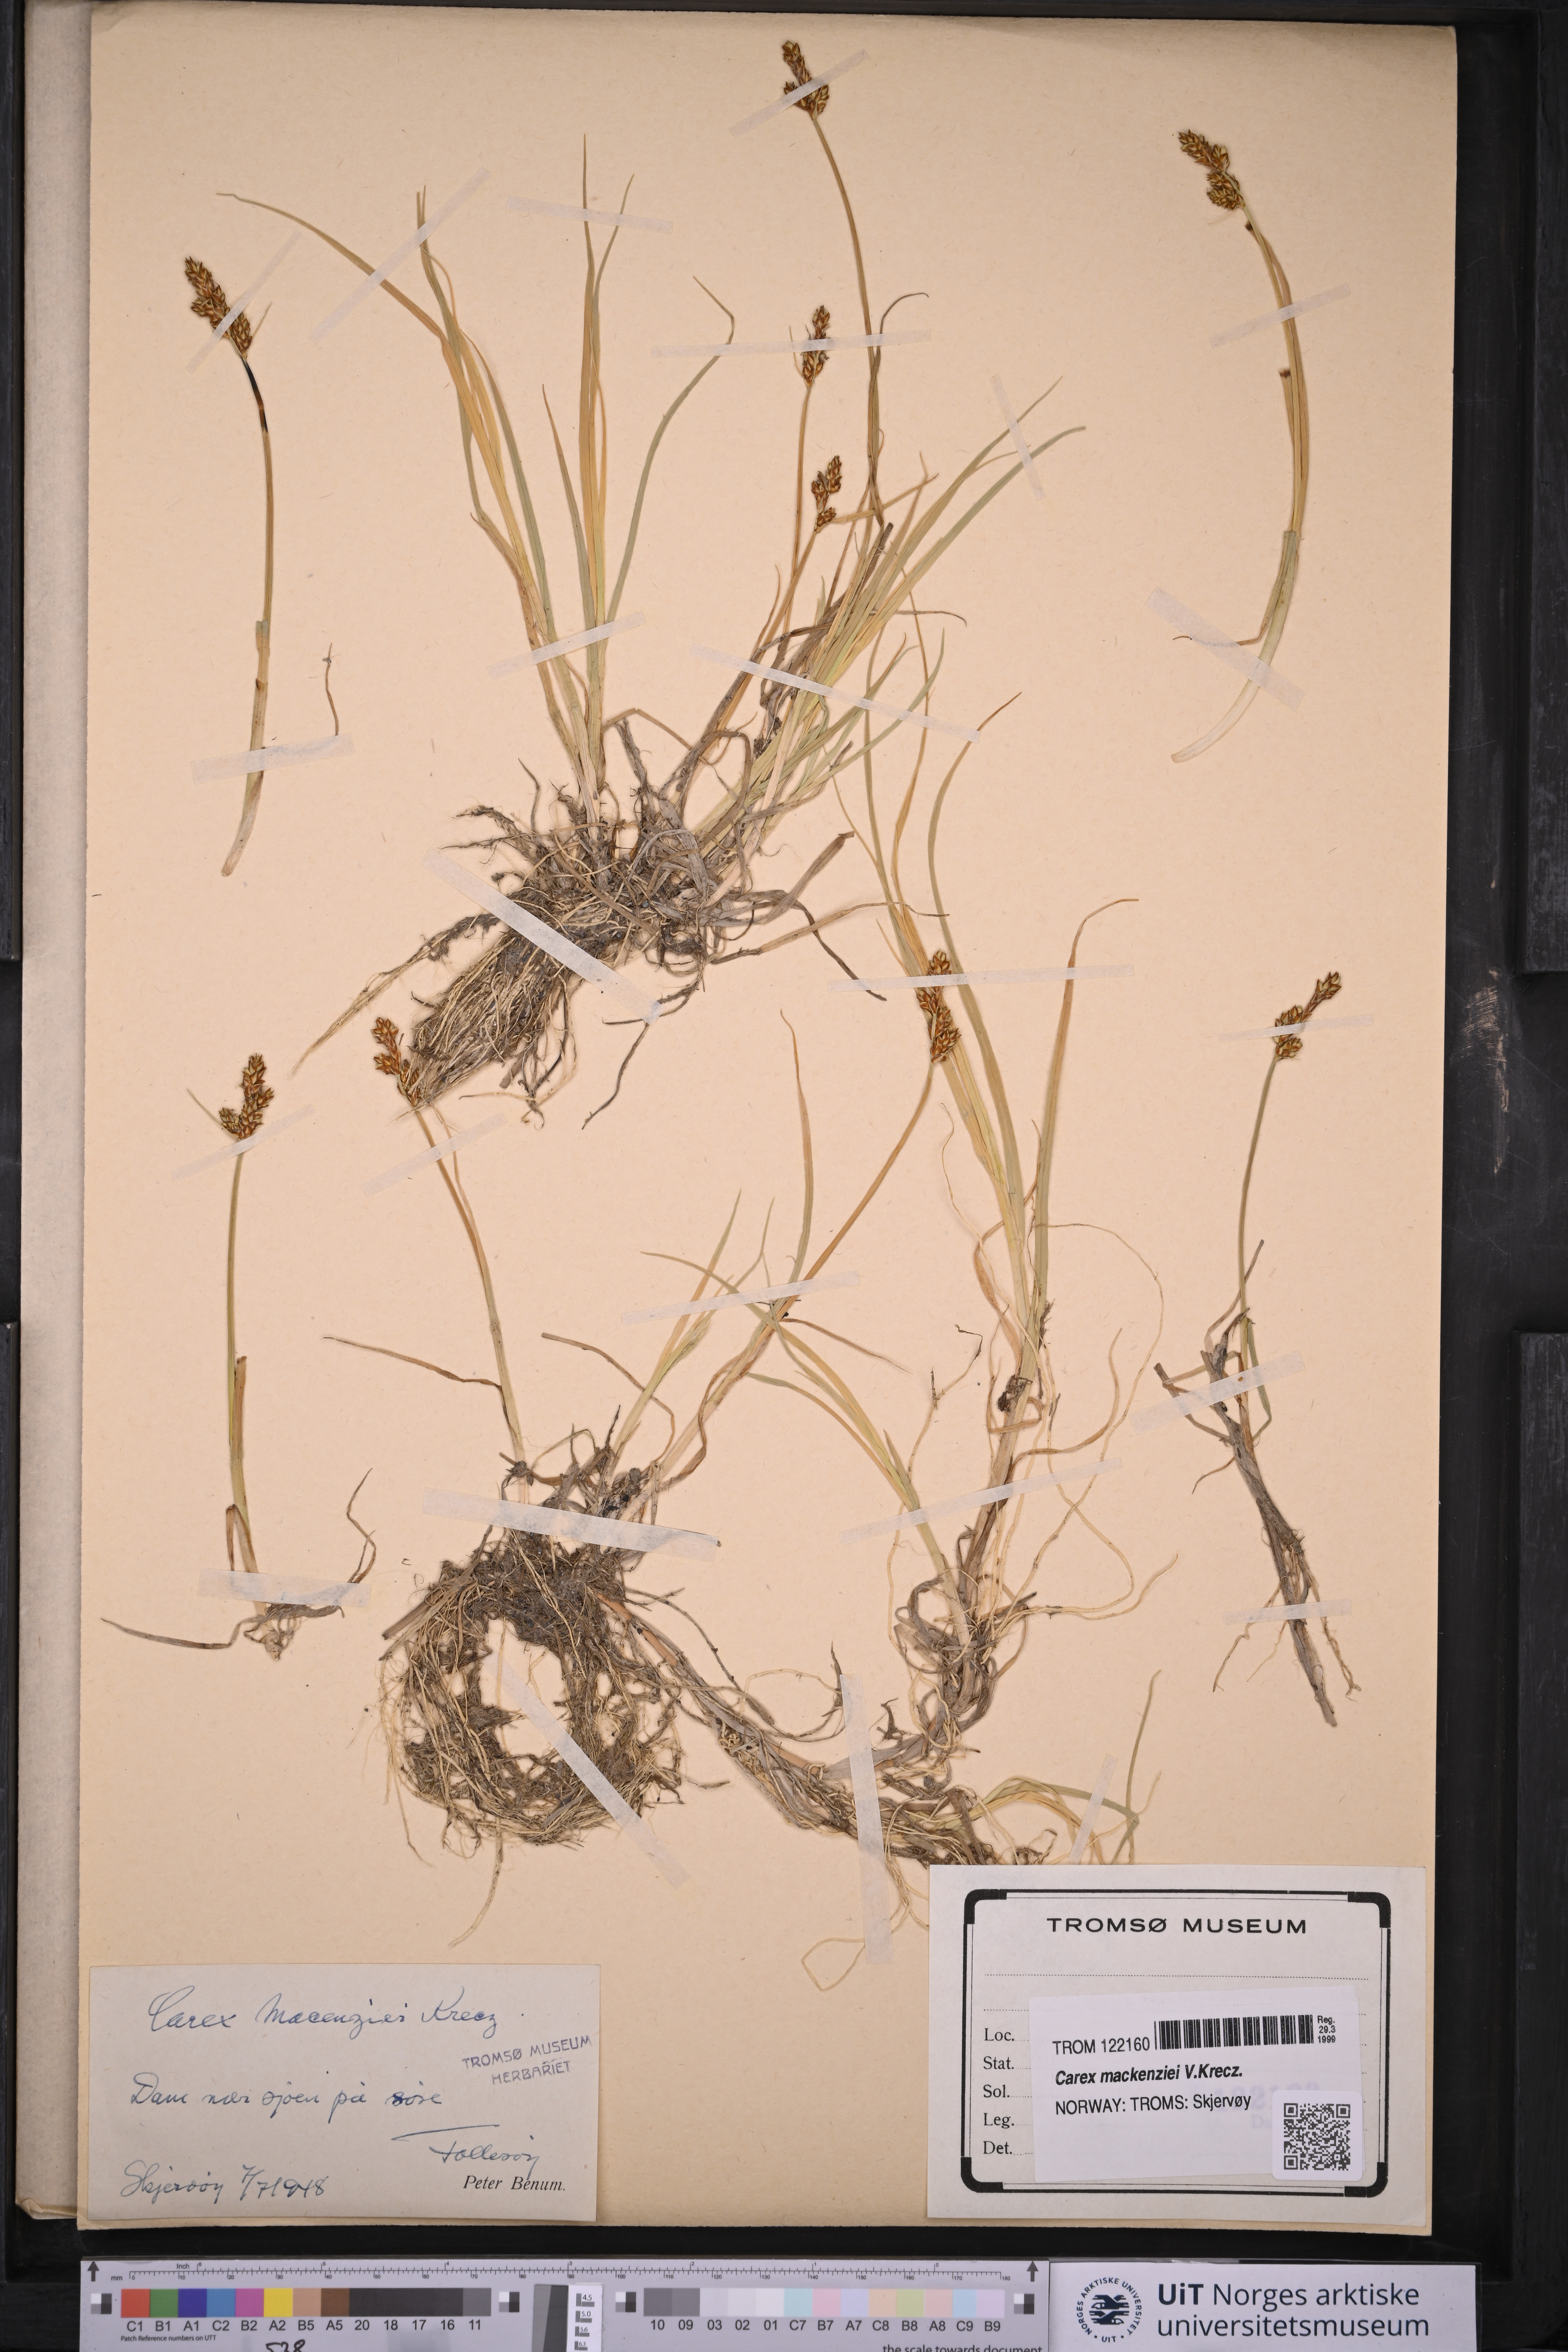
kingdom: Plantae
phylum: Tracheophyta
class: Liliopsida
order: Poales
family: Cyperaceae
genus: Carex
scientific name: Carex mackenziei
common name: Mackenzie's sedge
